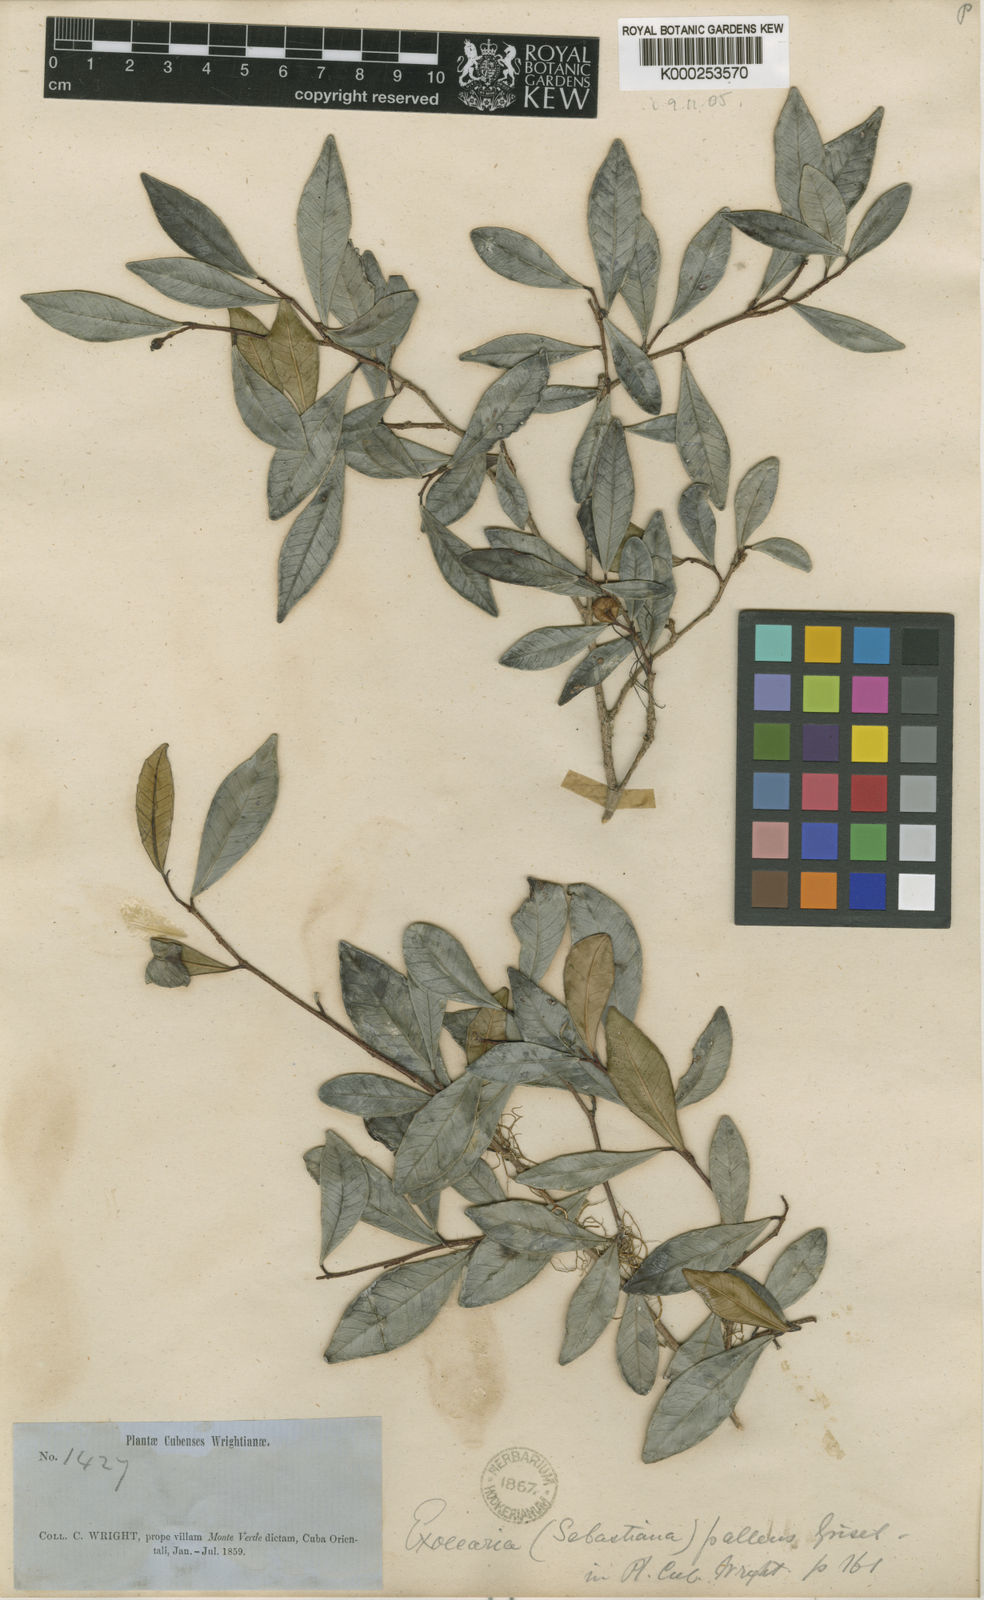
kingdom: Plantae
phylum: Tracheophyta
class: Magnoliopsida
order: Malpighiales
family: Euphorbiaceae
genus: Gymnanthes
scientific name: Gymnanthes
